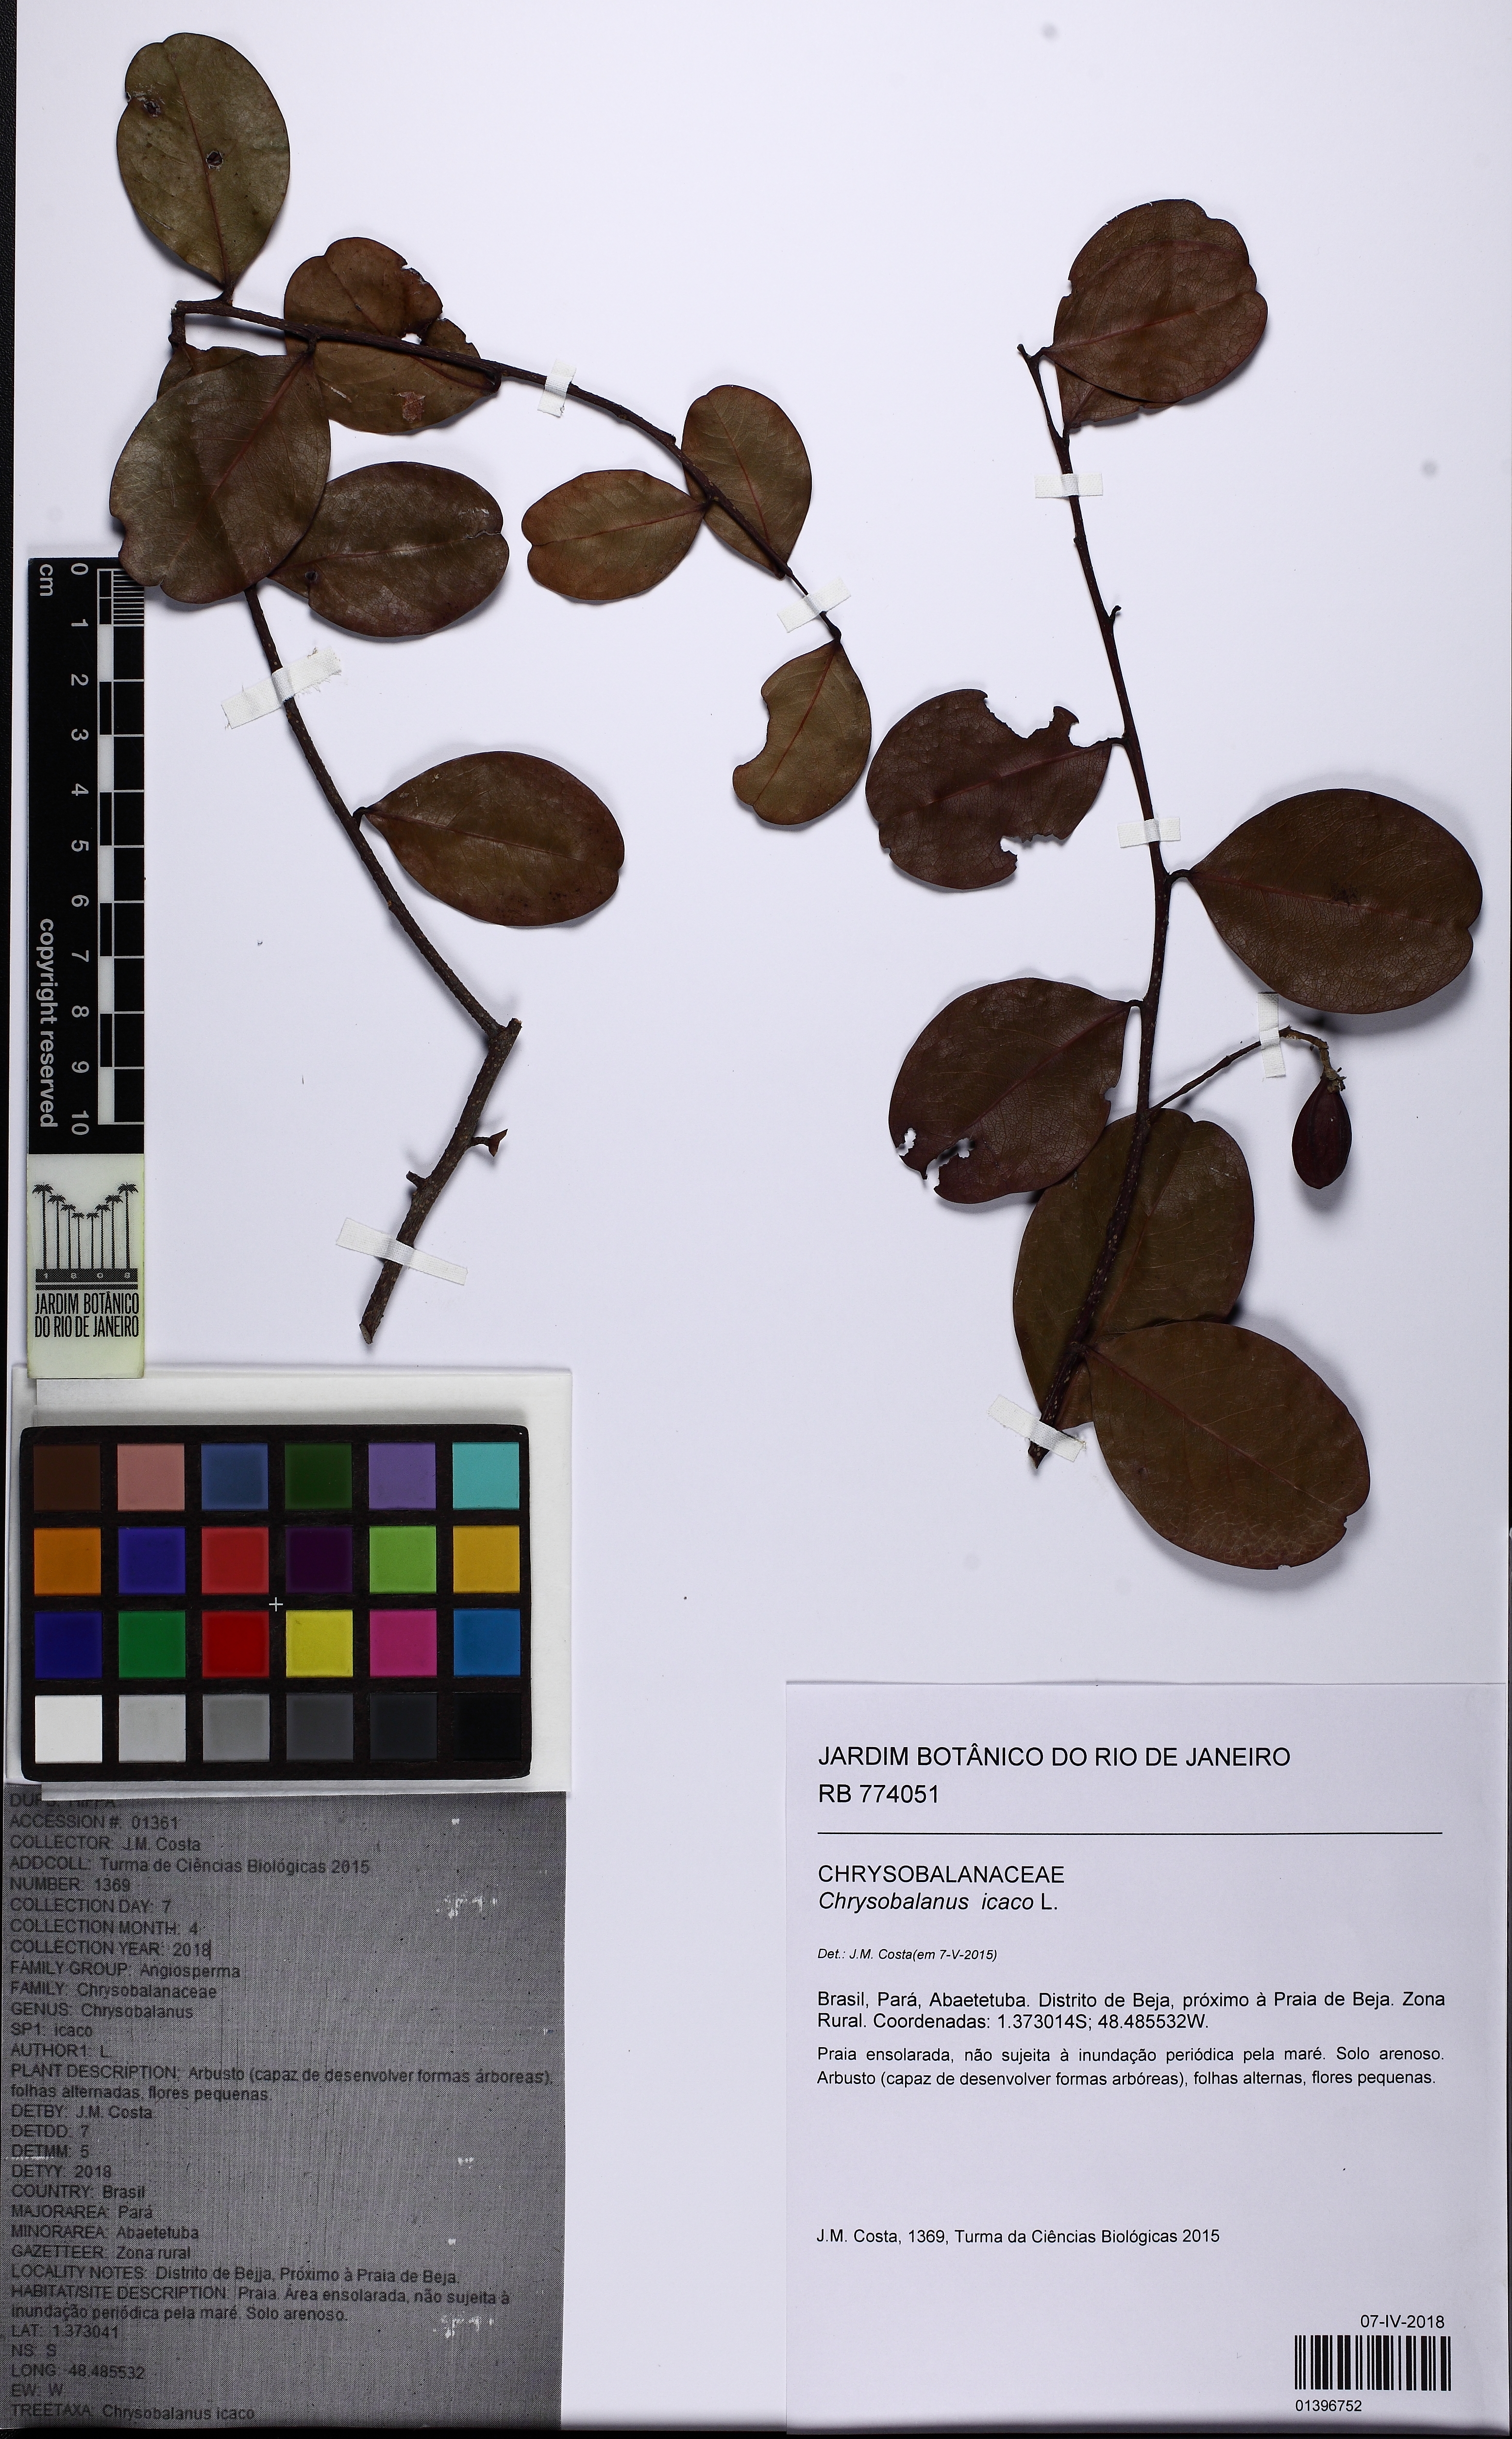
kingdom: Plantae
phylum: Tracheophyta
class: Magnoliopsida
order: Malpighiales
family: Chrysobalanaceae
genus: Chrysobalanus
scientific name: Chrysobalanus icaco
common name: Coco plum
